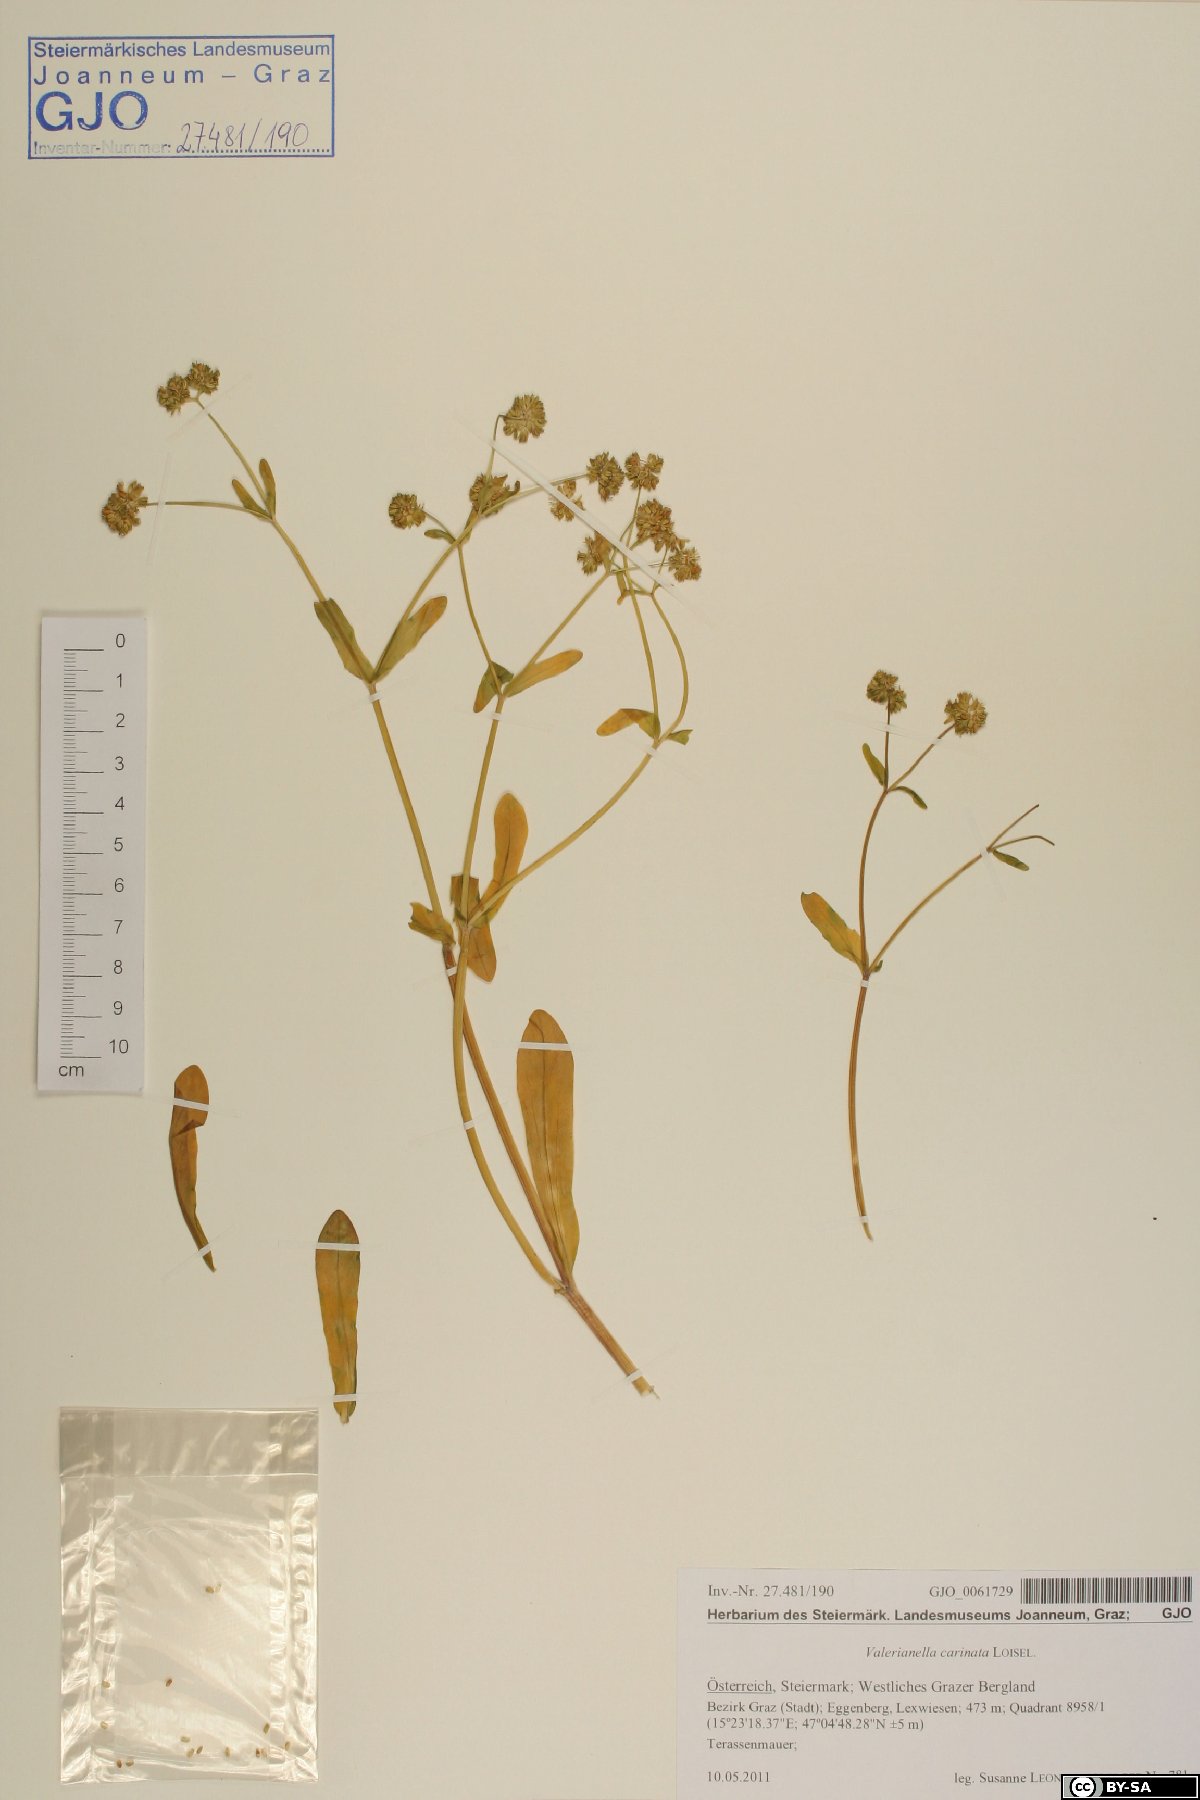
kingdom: Plantae
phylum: Tracheophyta
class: Magnoliopsida
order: Dipsacales
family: Caprifoliaceae
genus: Valerianella
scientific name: Valerianella carinata
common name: Keeled-fruited cornsalad
